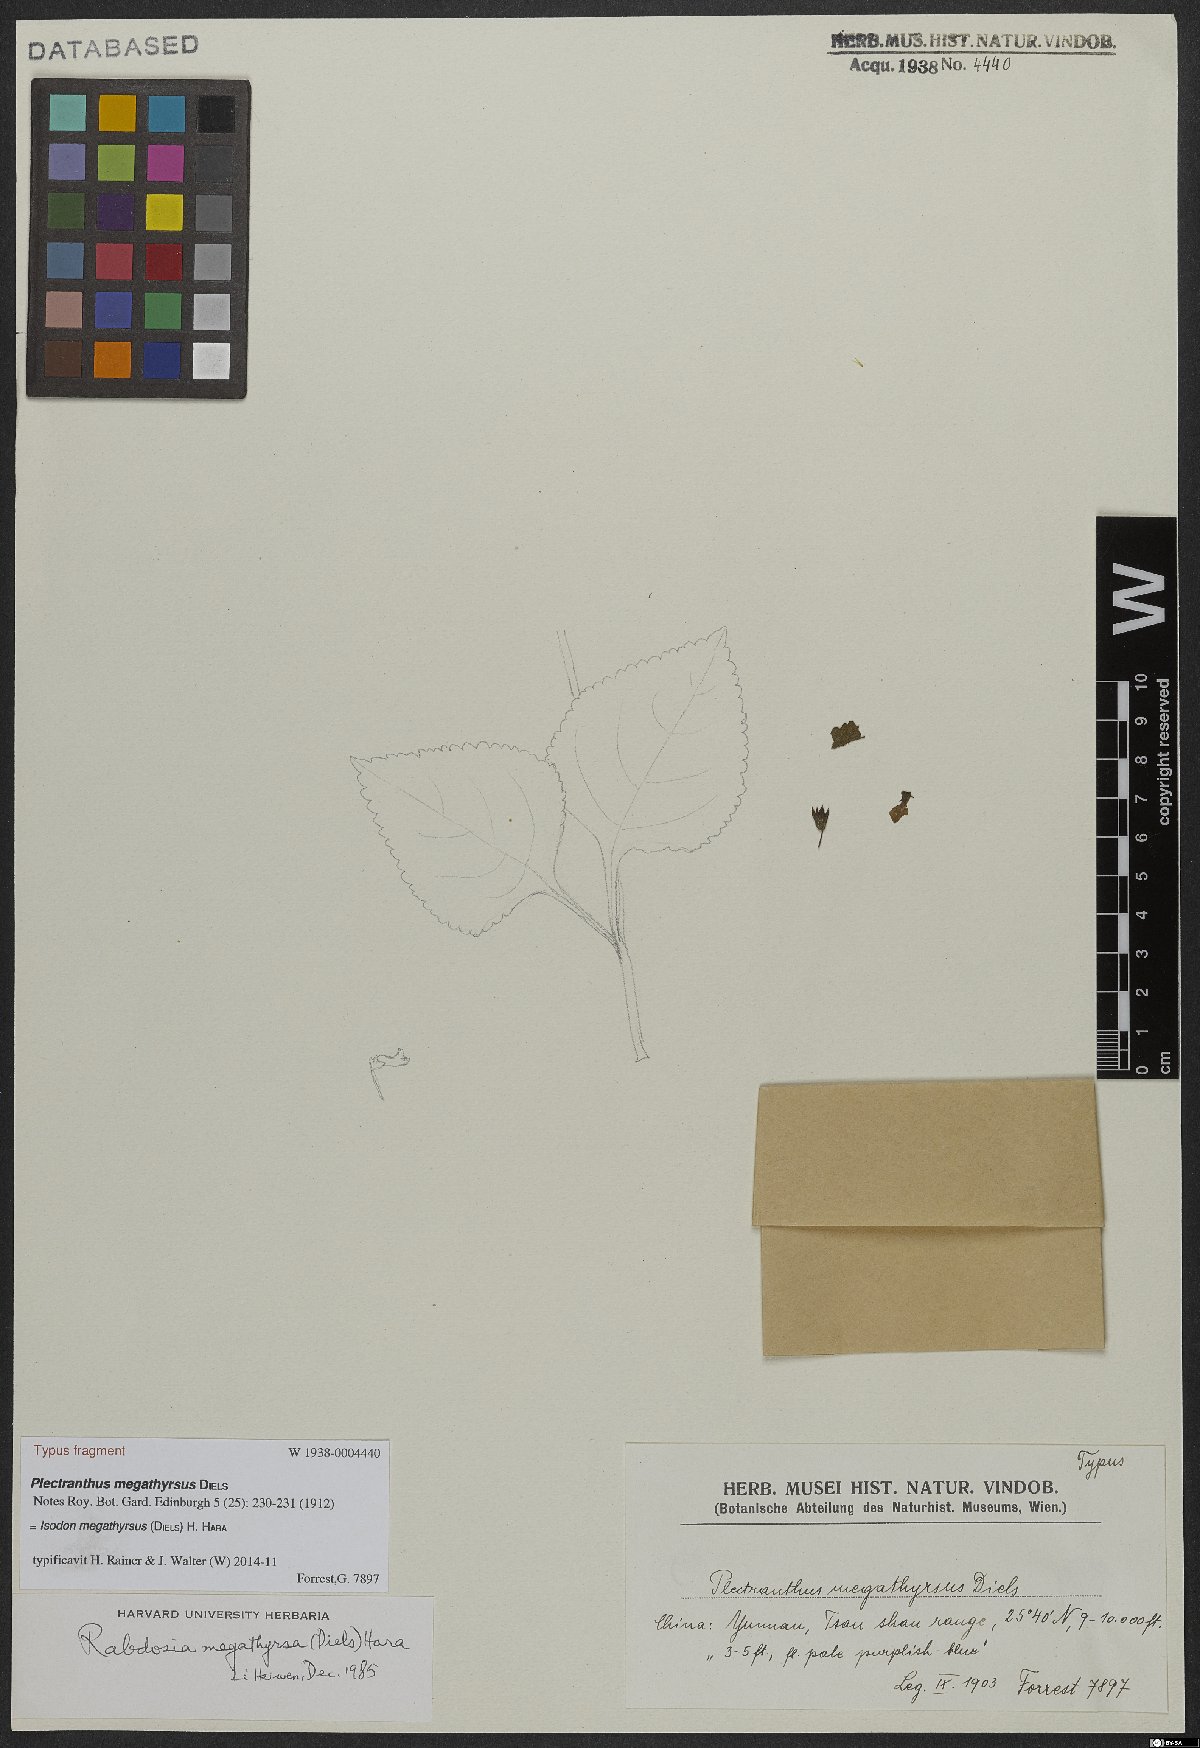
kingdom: Plantae
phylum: Tracheophyta
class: Magnoliopsida
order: Lamiales
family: Lamiaceae
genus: Isodon
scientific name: Isodon megathyrsus
